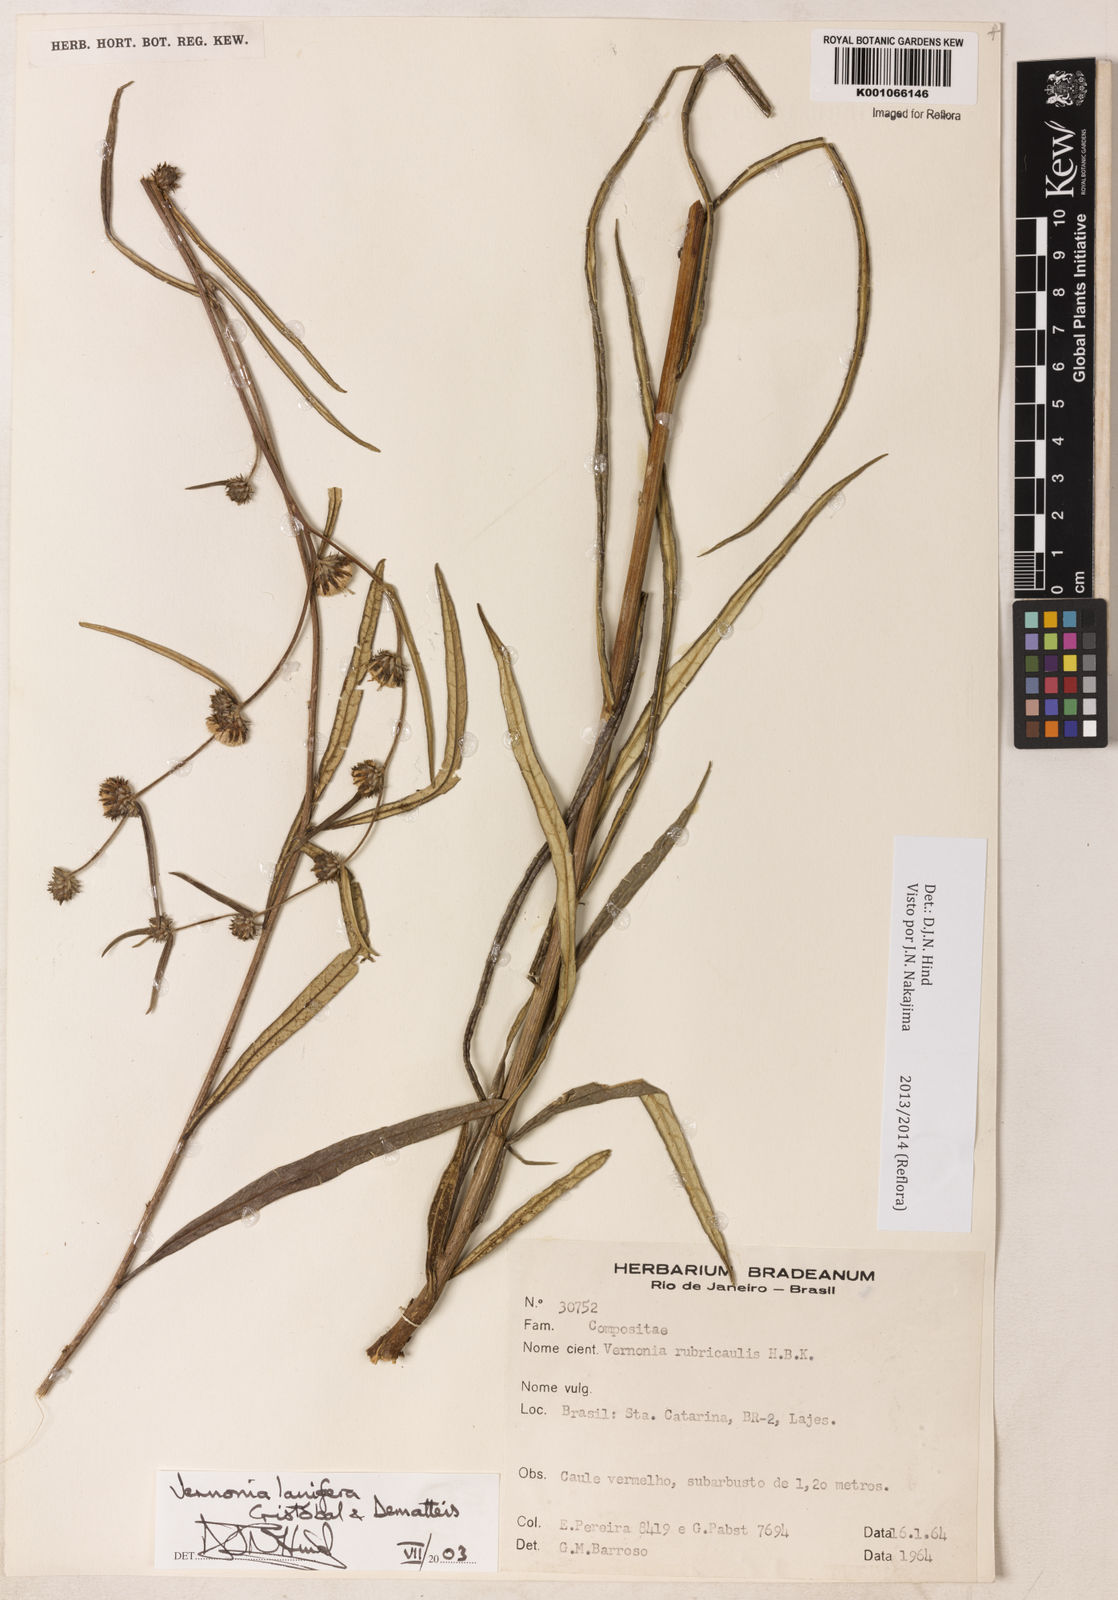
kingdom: Plantae
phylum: Tracheophyta
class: Magnoliopsida
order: Asterales
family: Asteraceae
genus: Vernonia
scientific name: Vernonia
